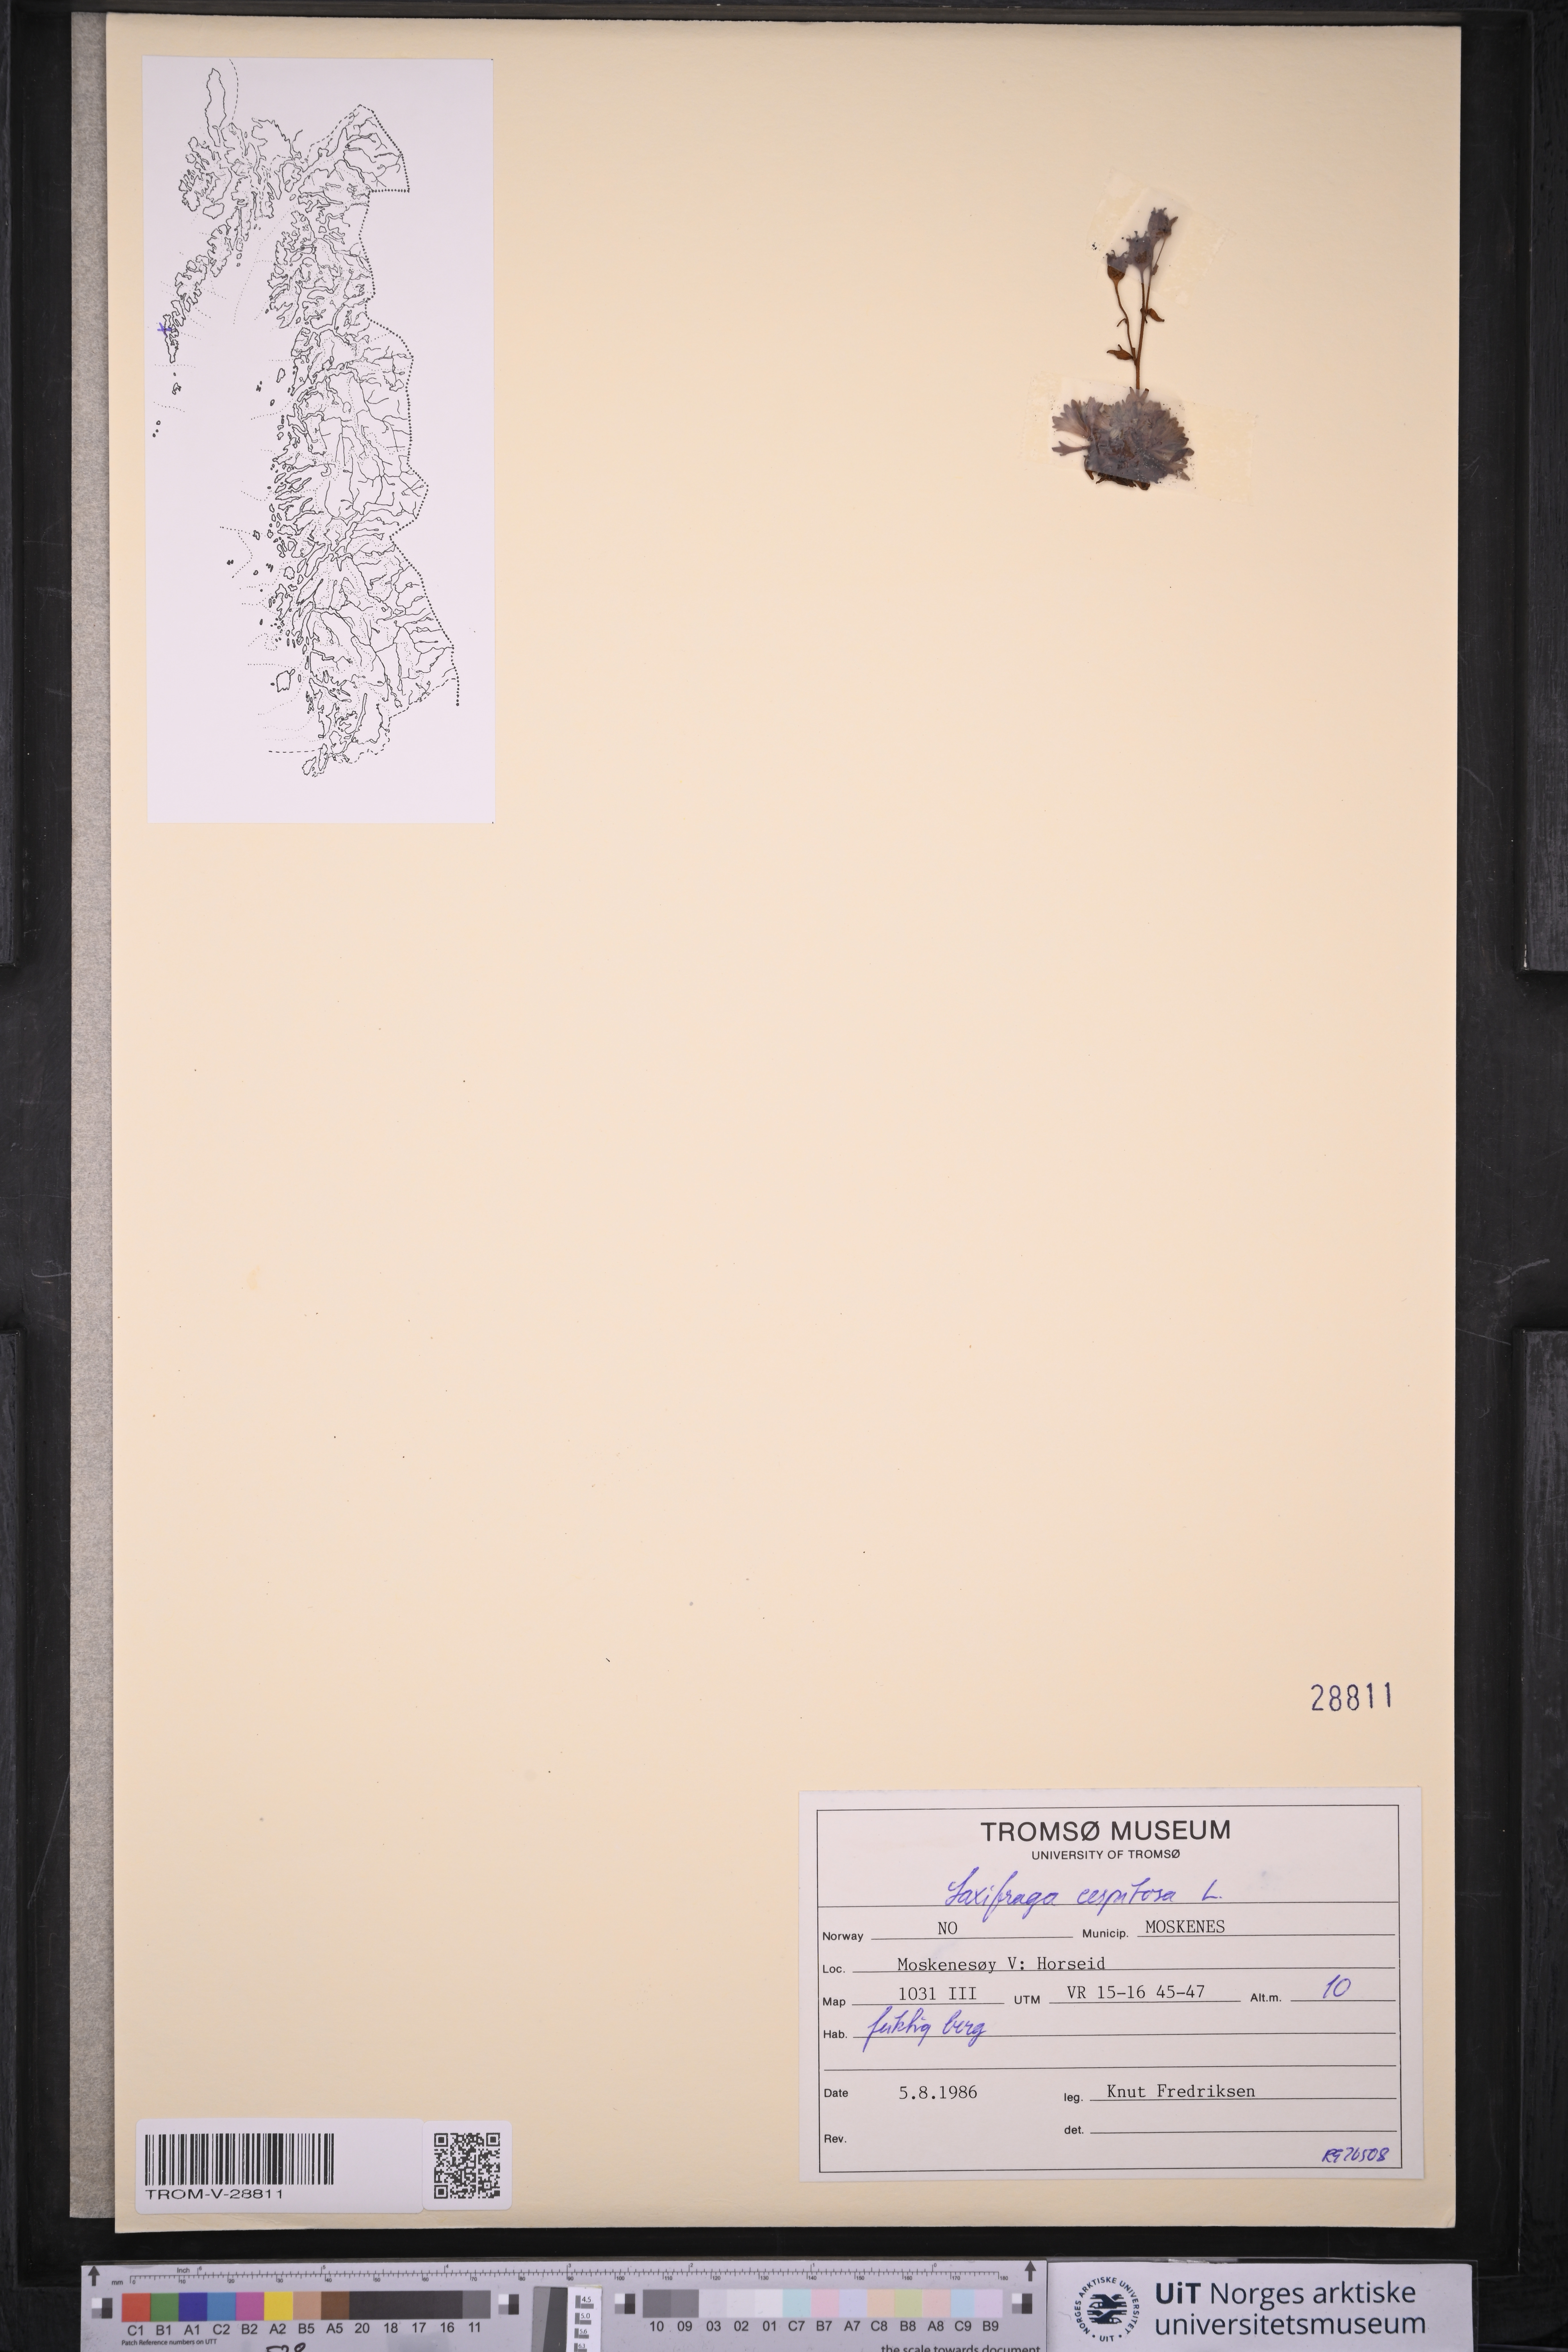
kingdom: Plantae
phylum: Tracheophyta
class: Magnoliopsida
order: Saxifragales
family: Saxifragaceae
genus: Saxifraga
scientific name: Saxifraga cespitosa
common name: Tufted saxifrage
